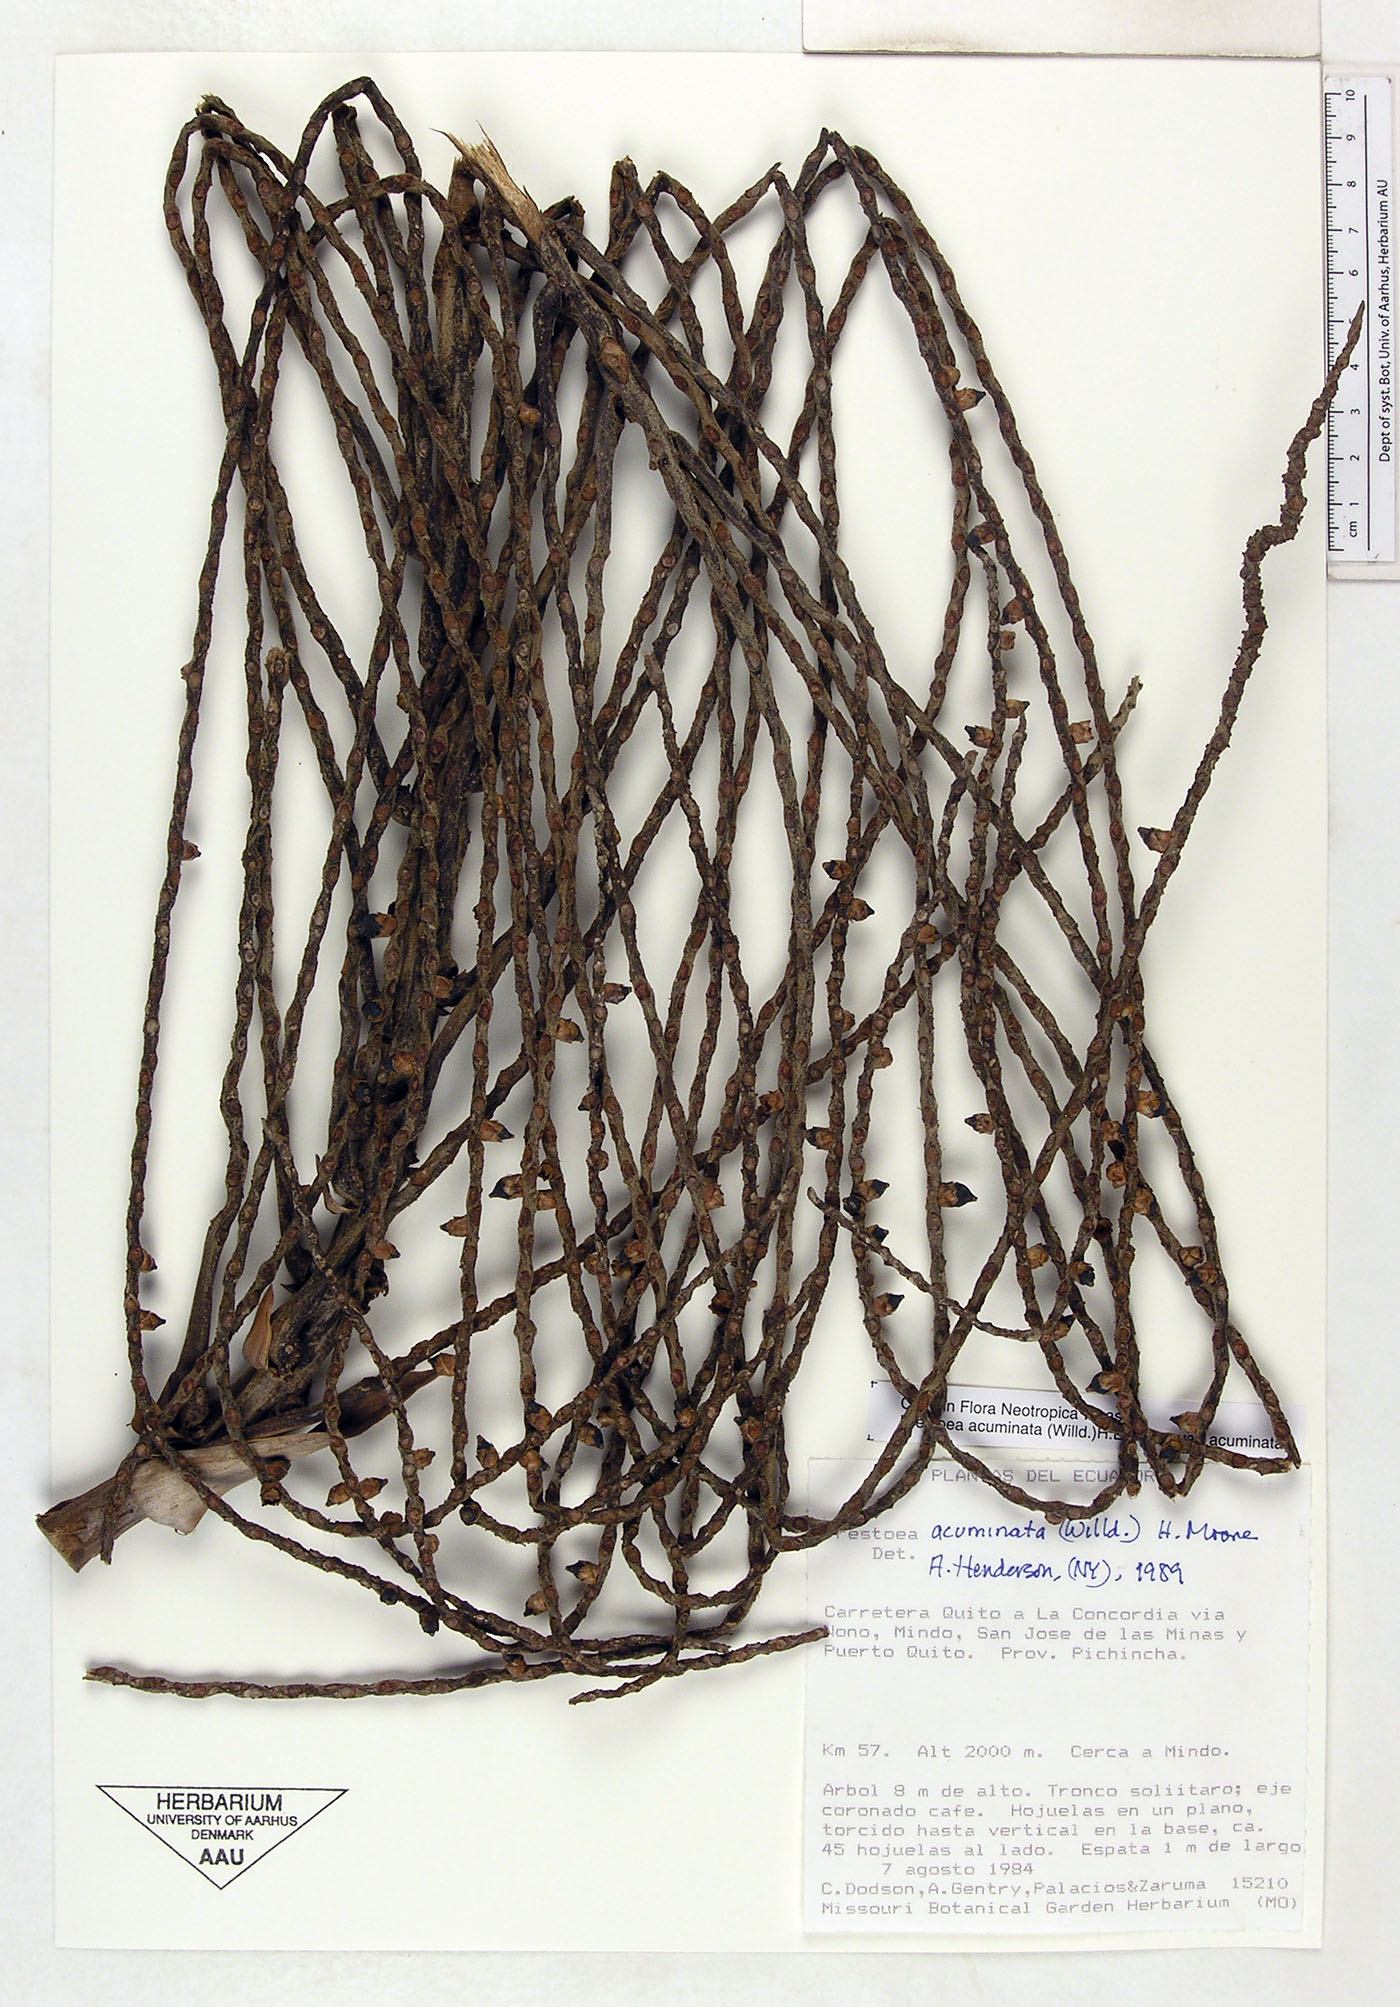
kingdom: Plantae
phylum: Tracheophyta
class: Liliopsida
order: Arecales
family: Arecaceae
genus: Prestoea
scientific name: Prestoea acuminata
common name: Sierran palm
